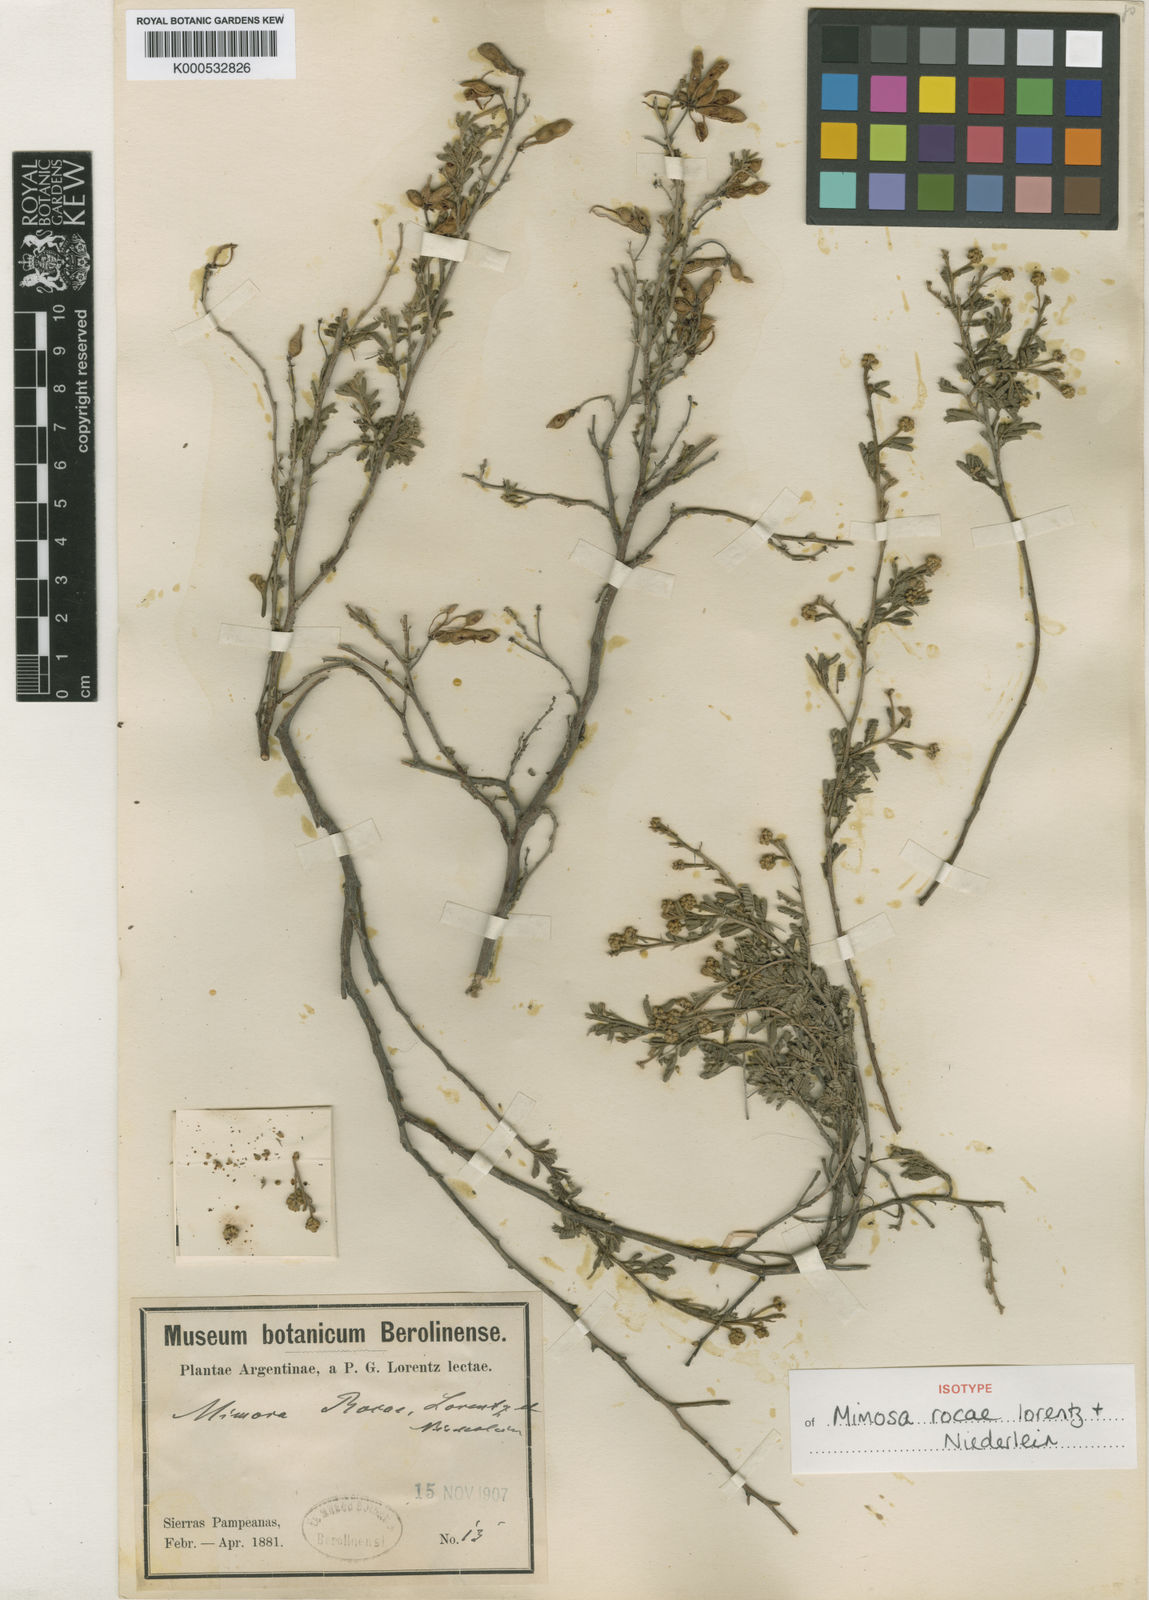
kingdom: Plantae
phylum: Tracheophyta
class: Magnoliopsida
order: Fabales
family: Fabaceae
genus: Mimosa
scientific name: Mimosa rocae
